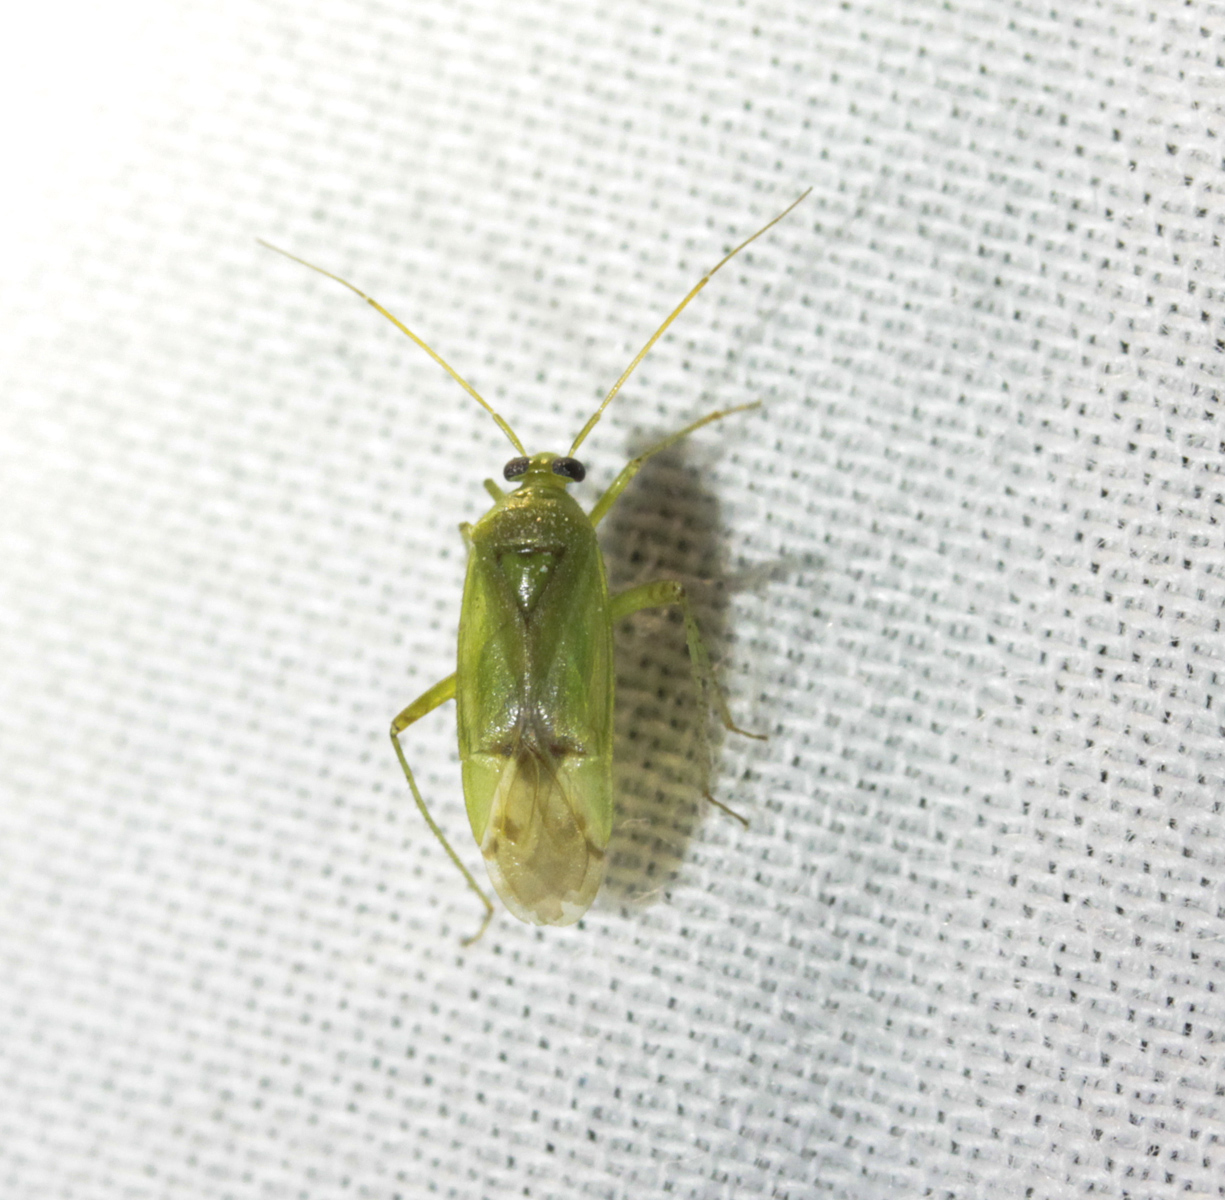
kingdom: Animalia
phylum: Arthropoda
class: Insecta
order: Hemiptera
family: Miridae
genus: Lygus
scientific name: Lygus
